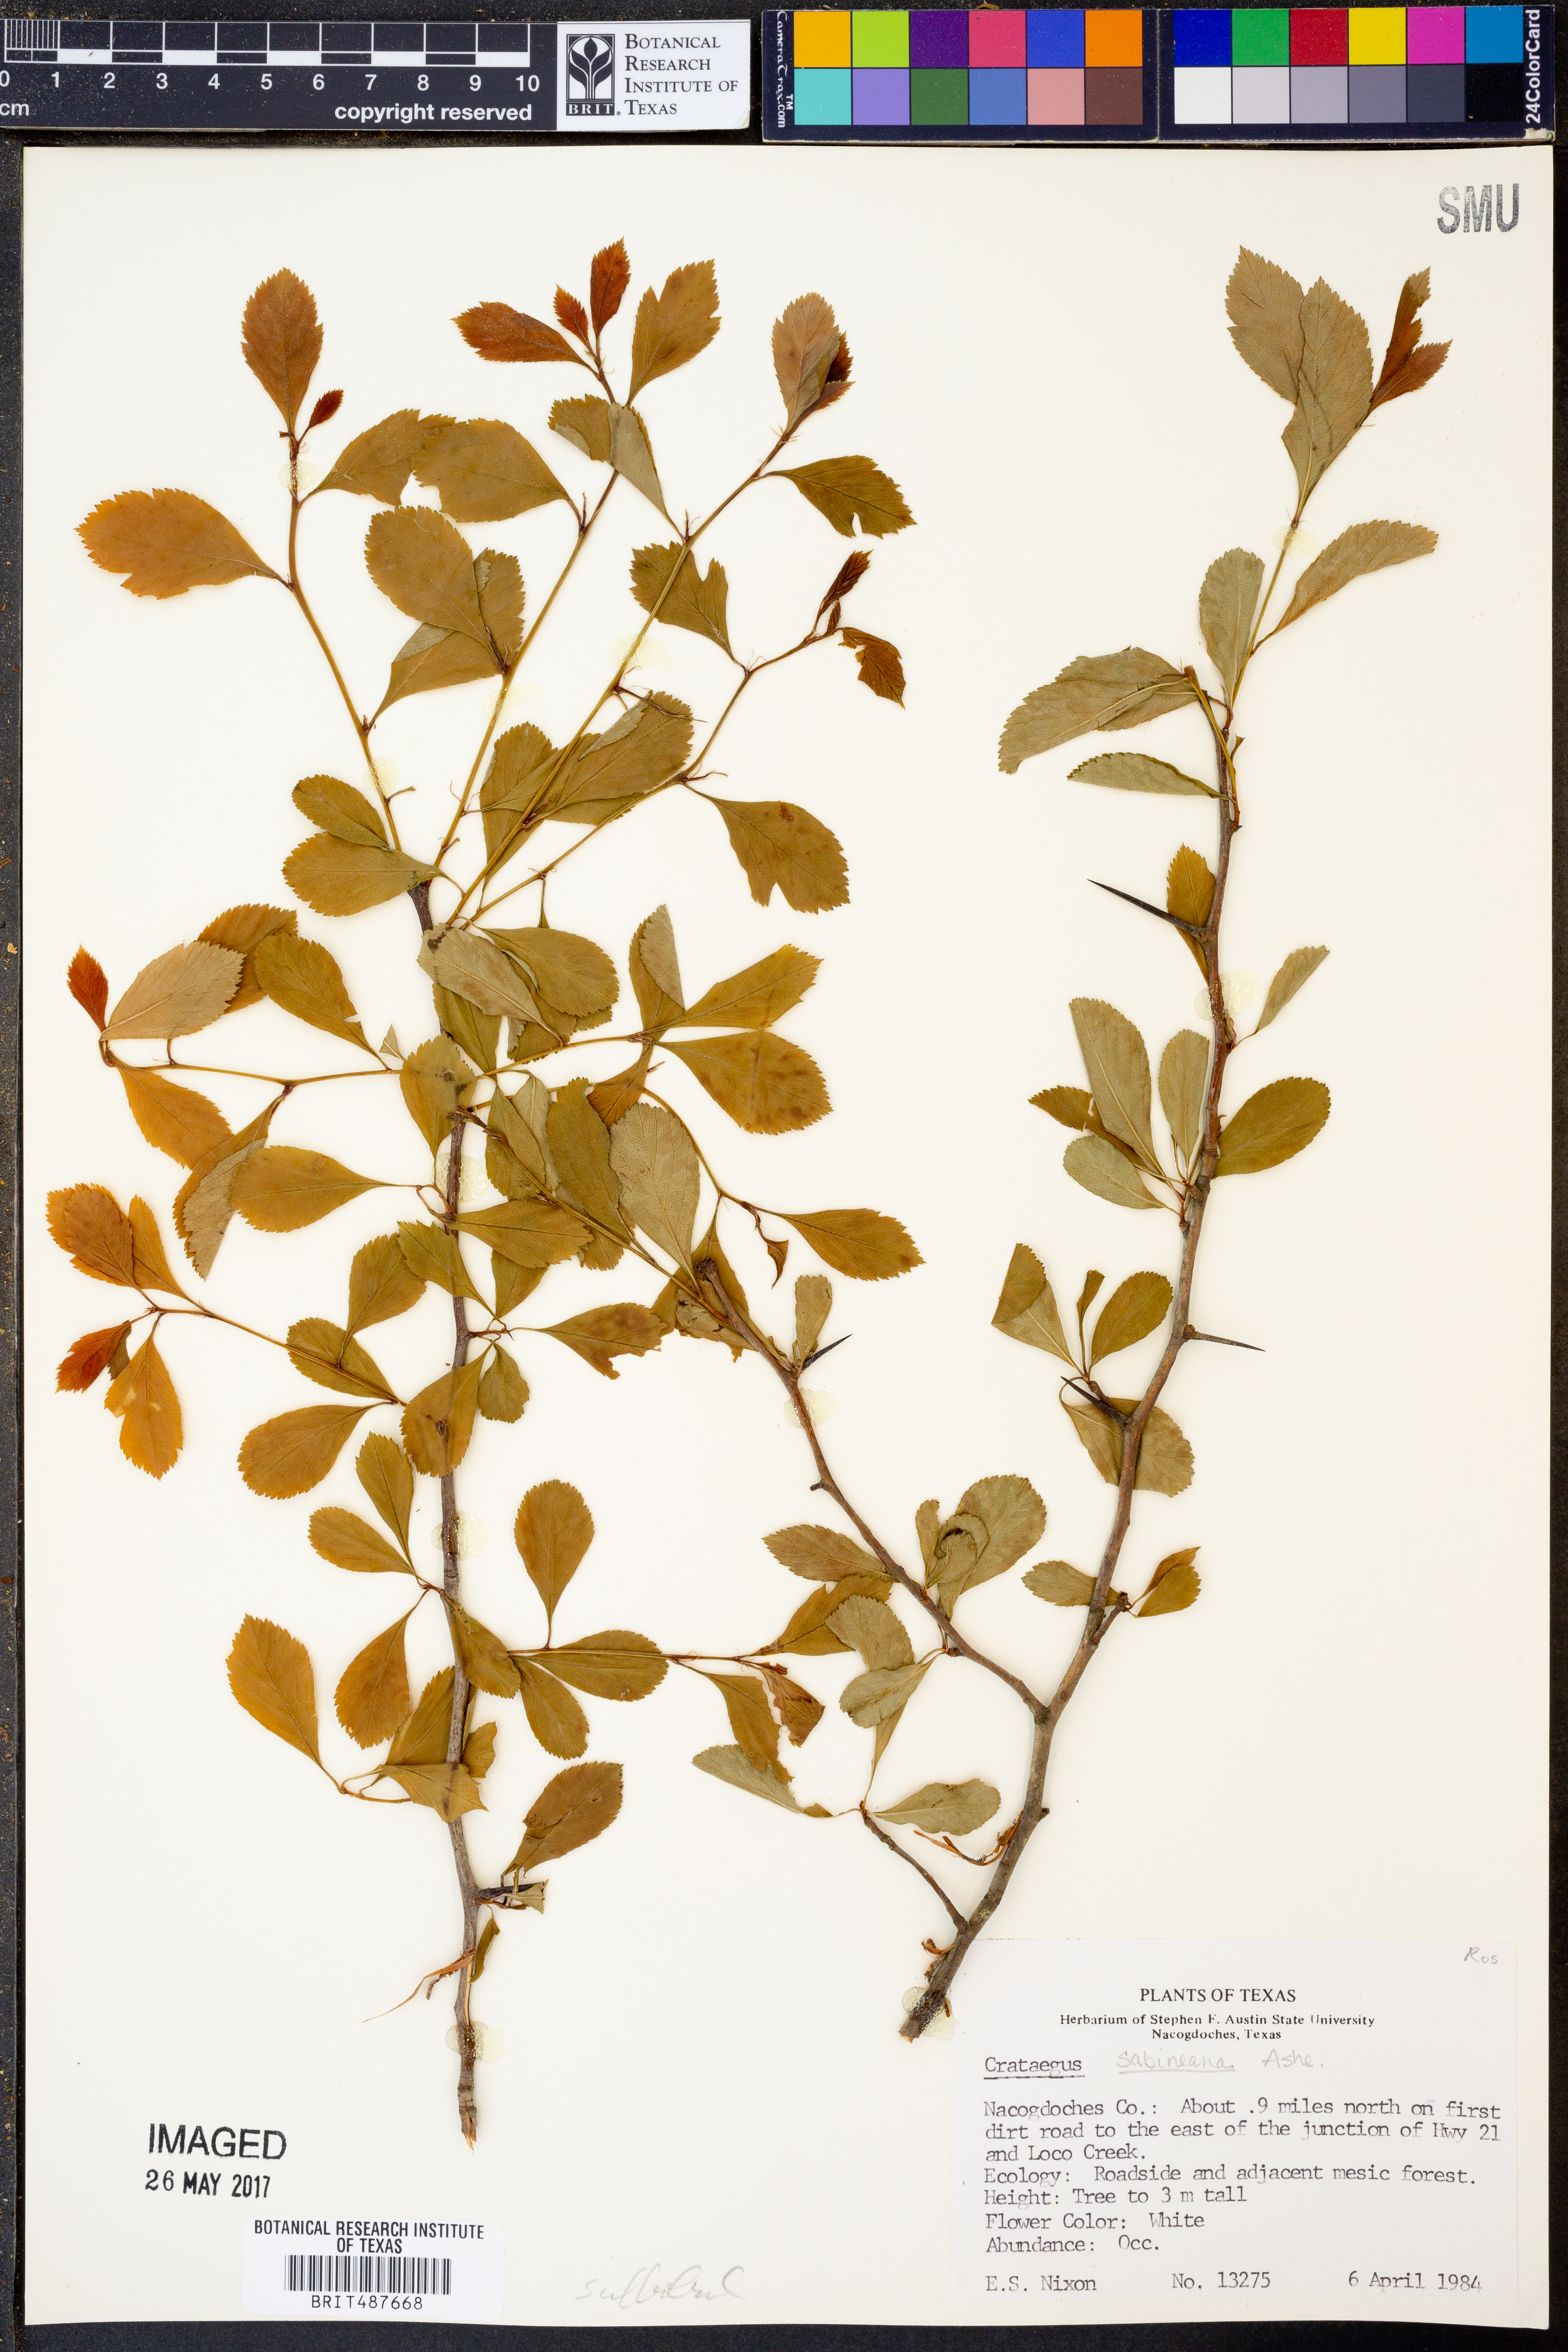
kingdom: Plantae
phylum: Tracheophyta
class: Magnoliopsida
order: Rosales
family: Rosaceae
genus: Crataegus
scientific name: Crataegus crus-galli
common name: Cockspurthorn
